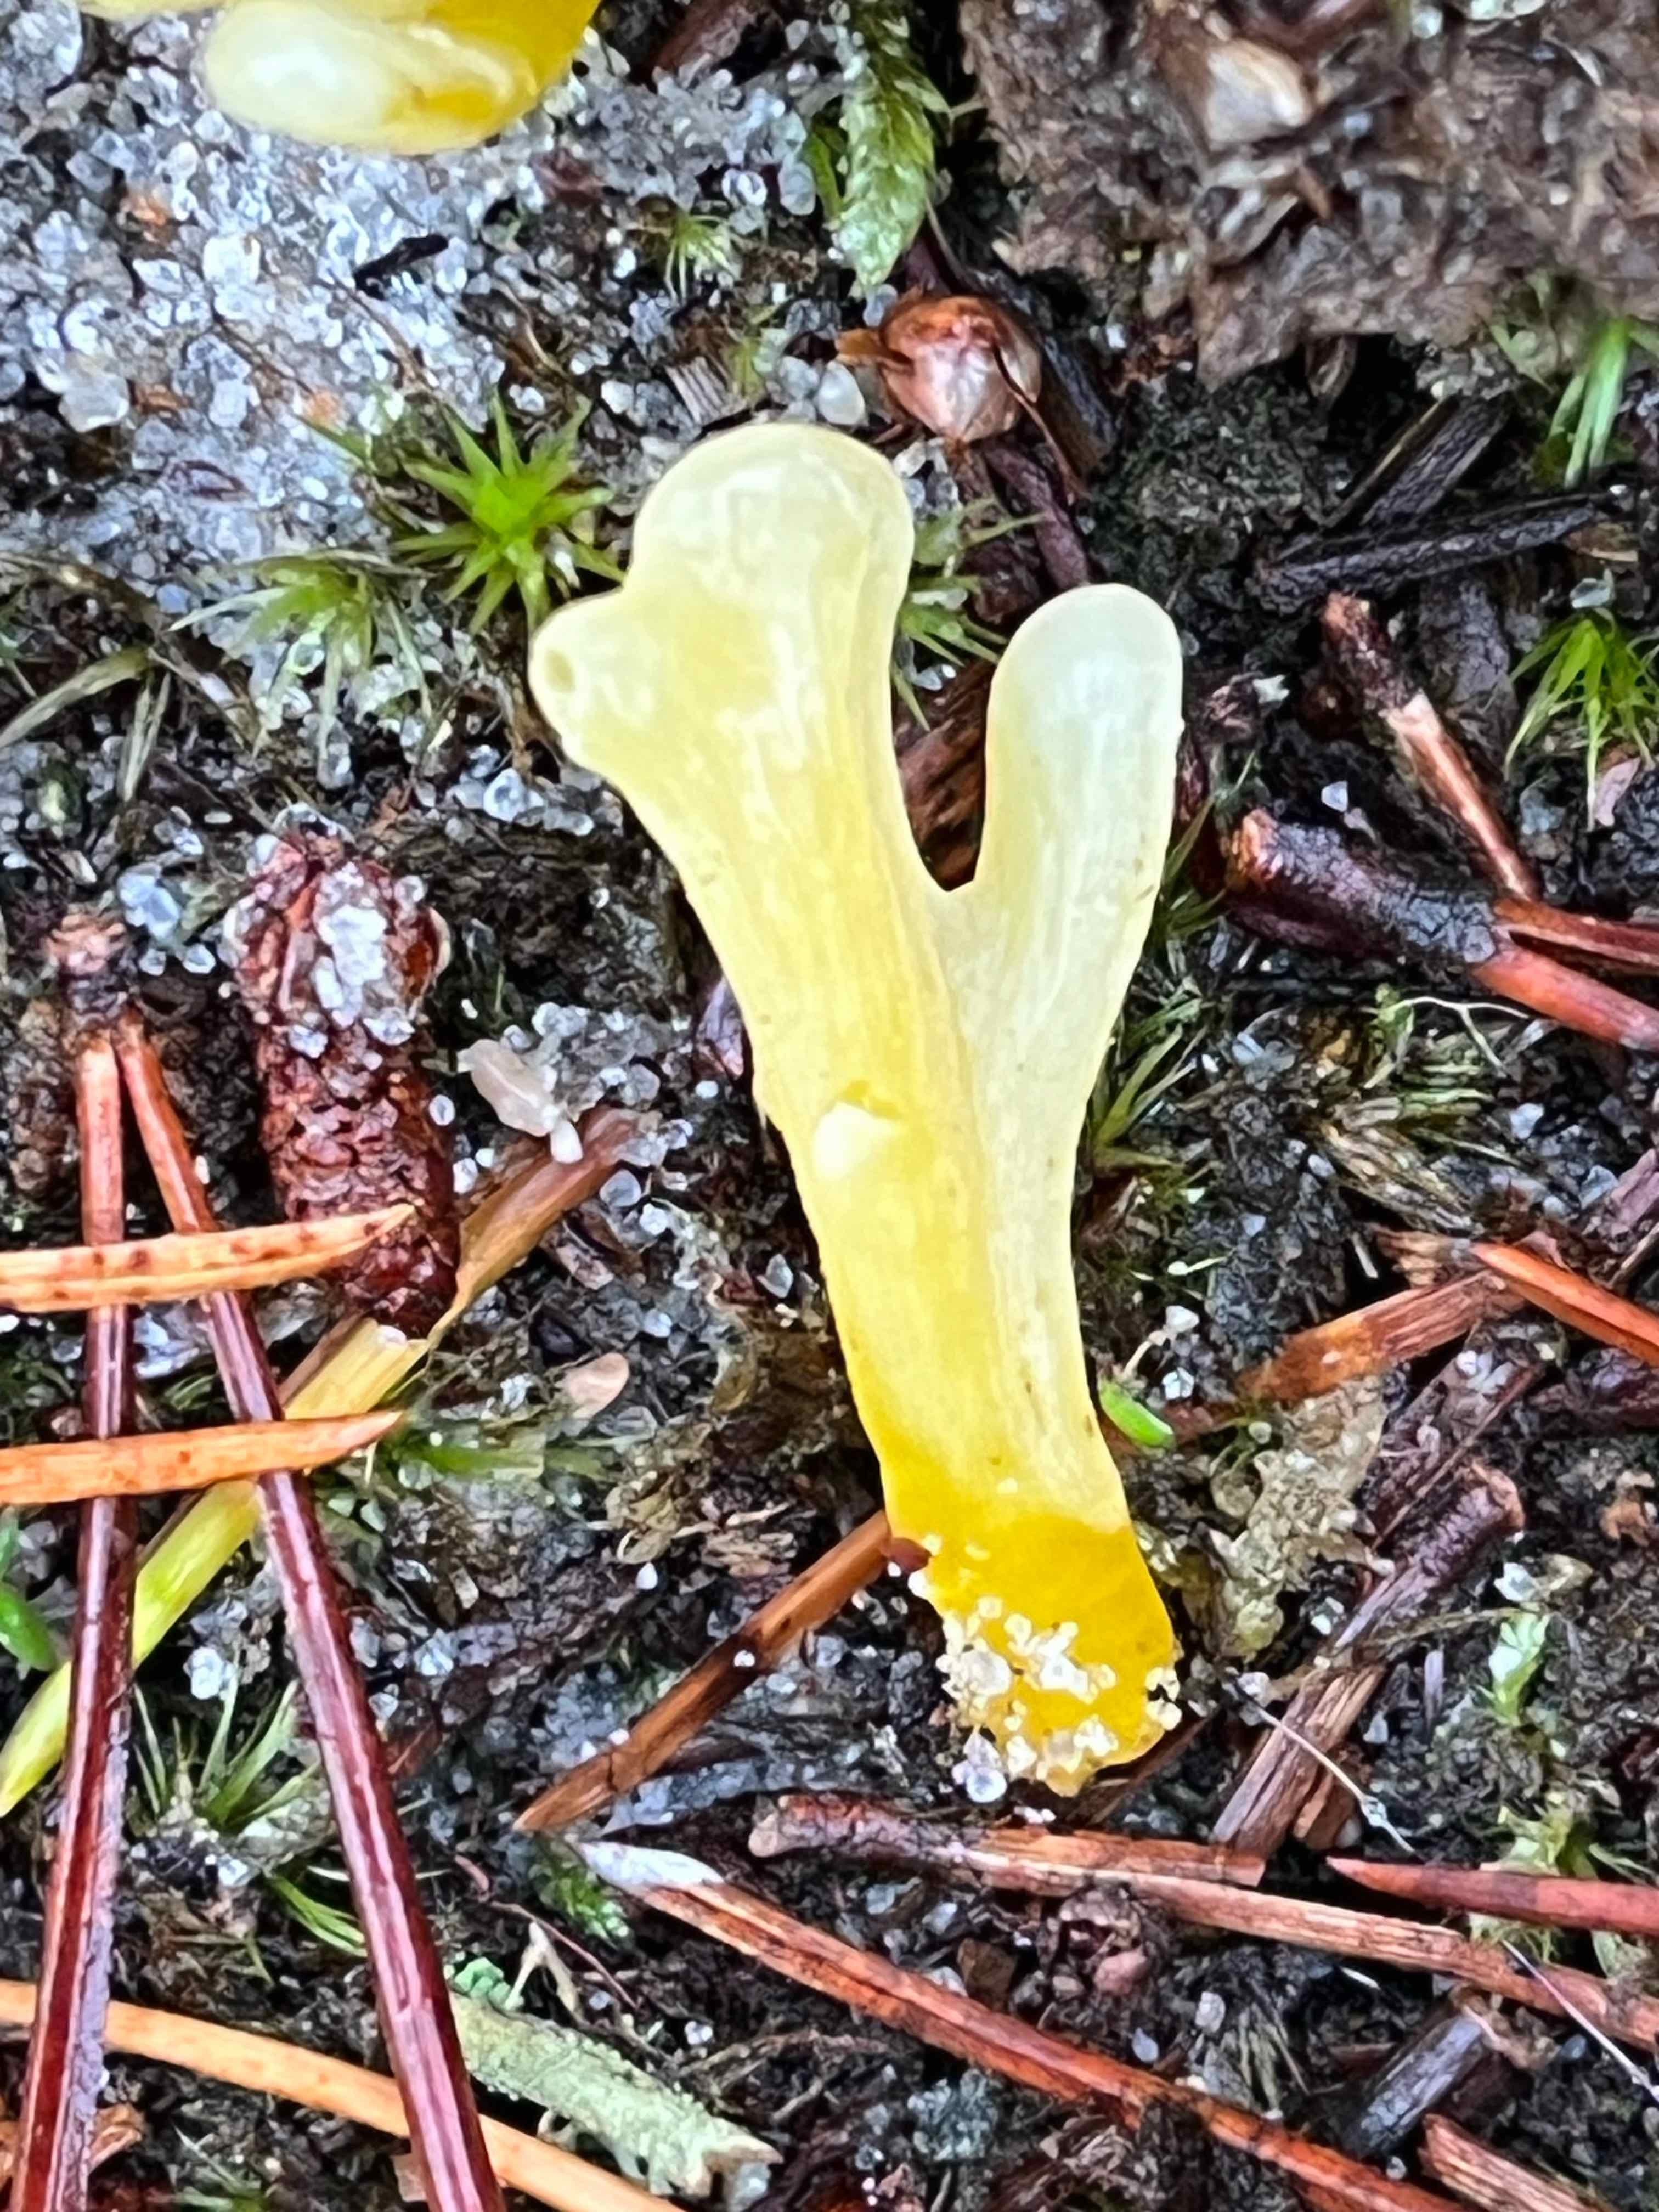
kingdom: Fungi
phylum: Basidiomycota
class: Agaricomycetes
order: Agaricales
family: Clavariaceae
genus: Clavaria
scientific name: Clavaria argillacea
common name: lerfarvet køllesvamp
